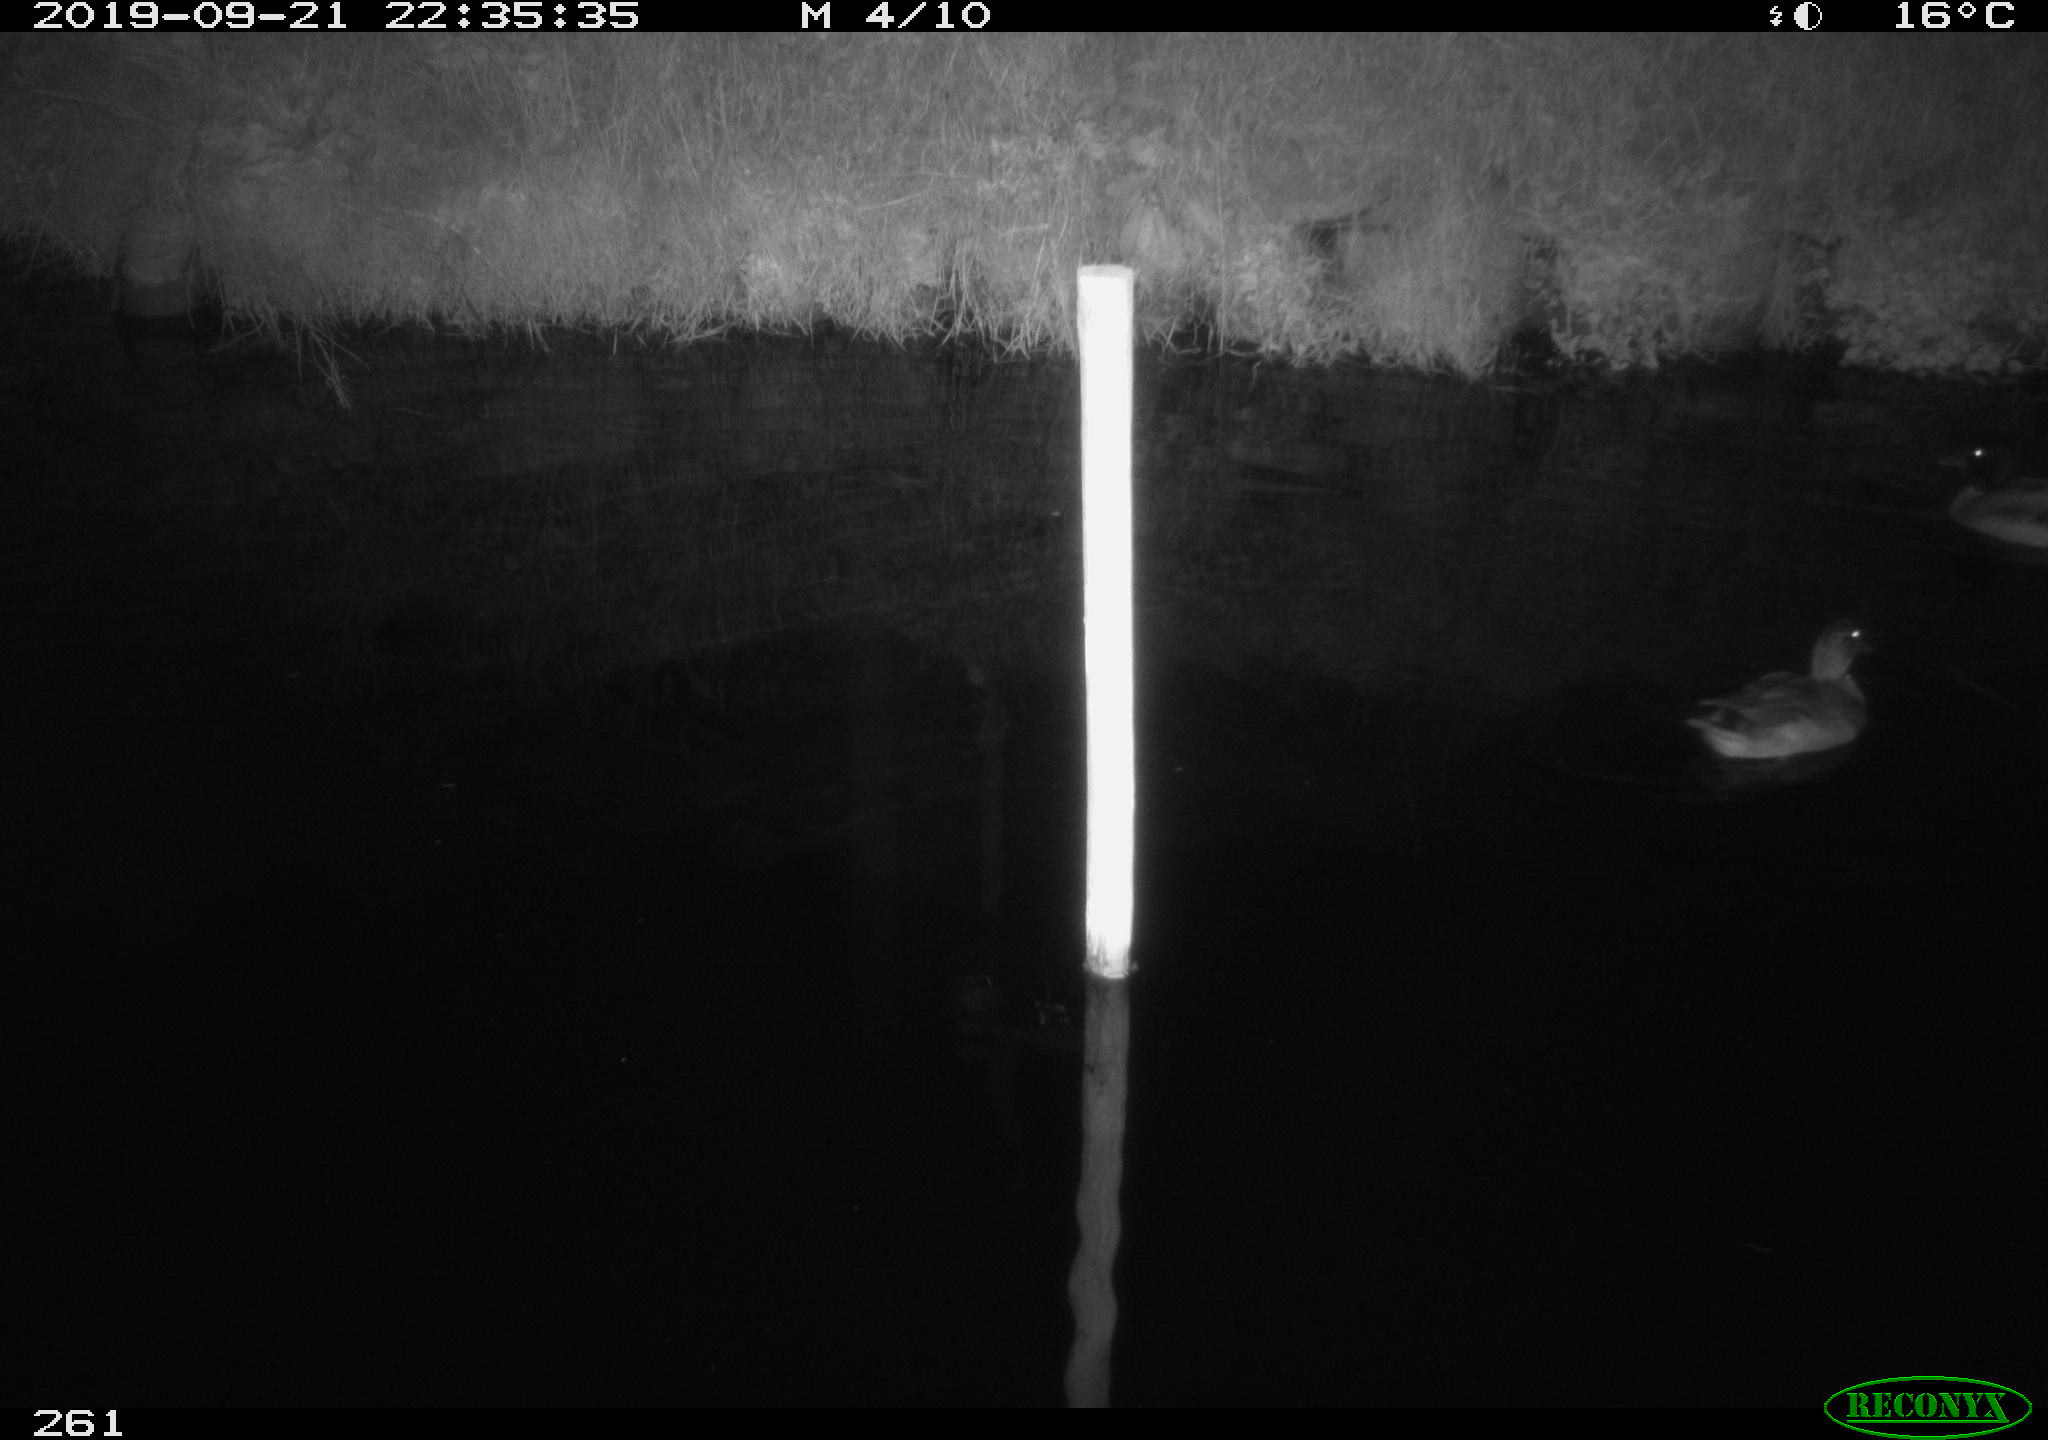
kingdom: Animalia
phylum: Chordata
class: Aves
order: Anseriformes
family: Anatidae
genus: Anas
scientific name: Anas platyrhynchos
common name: Mallard
